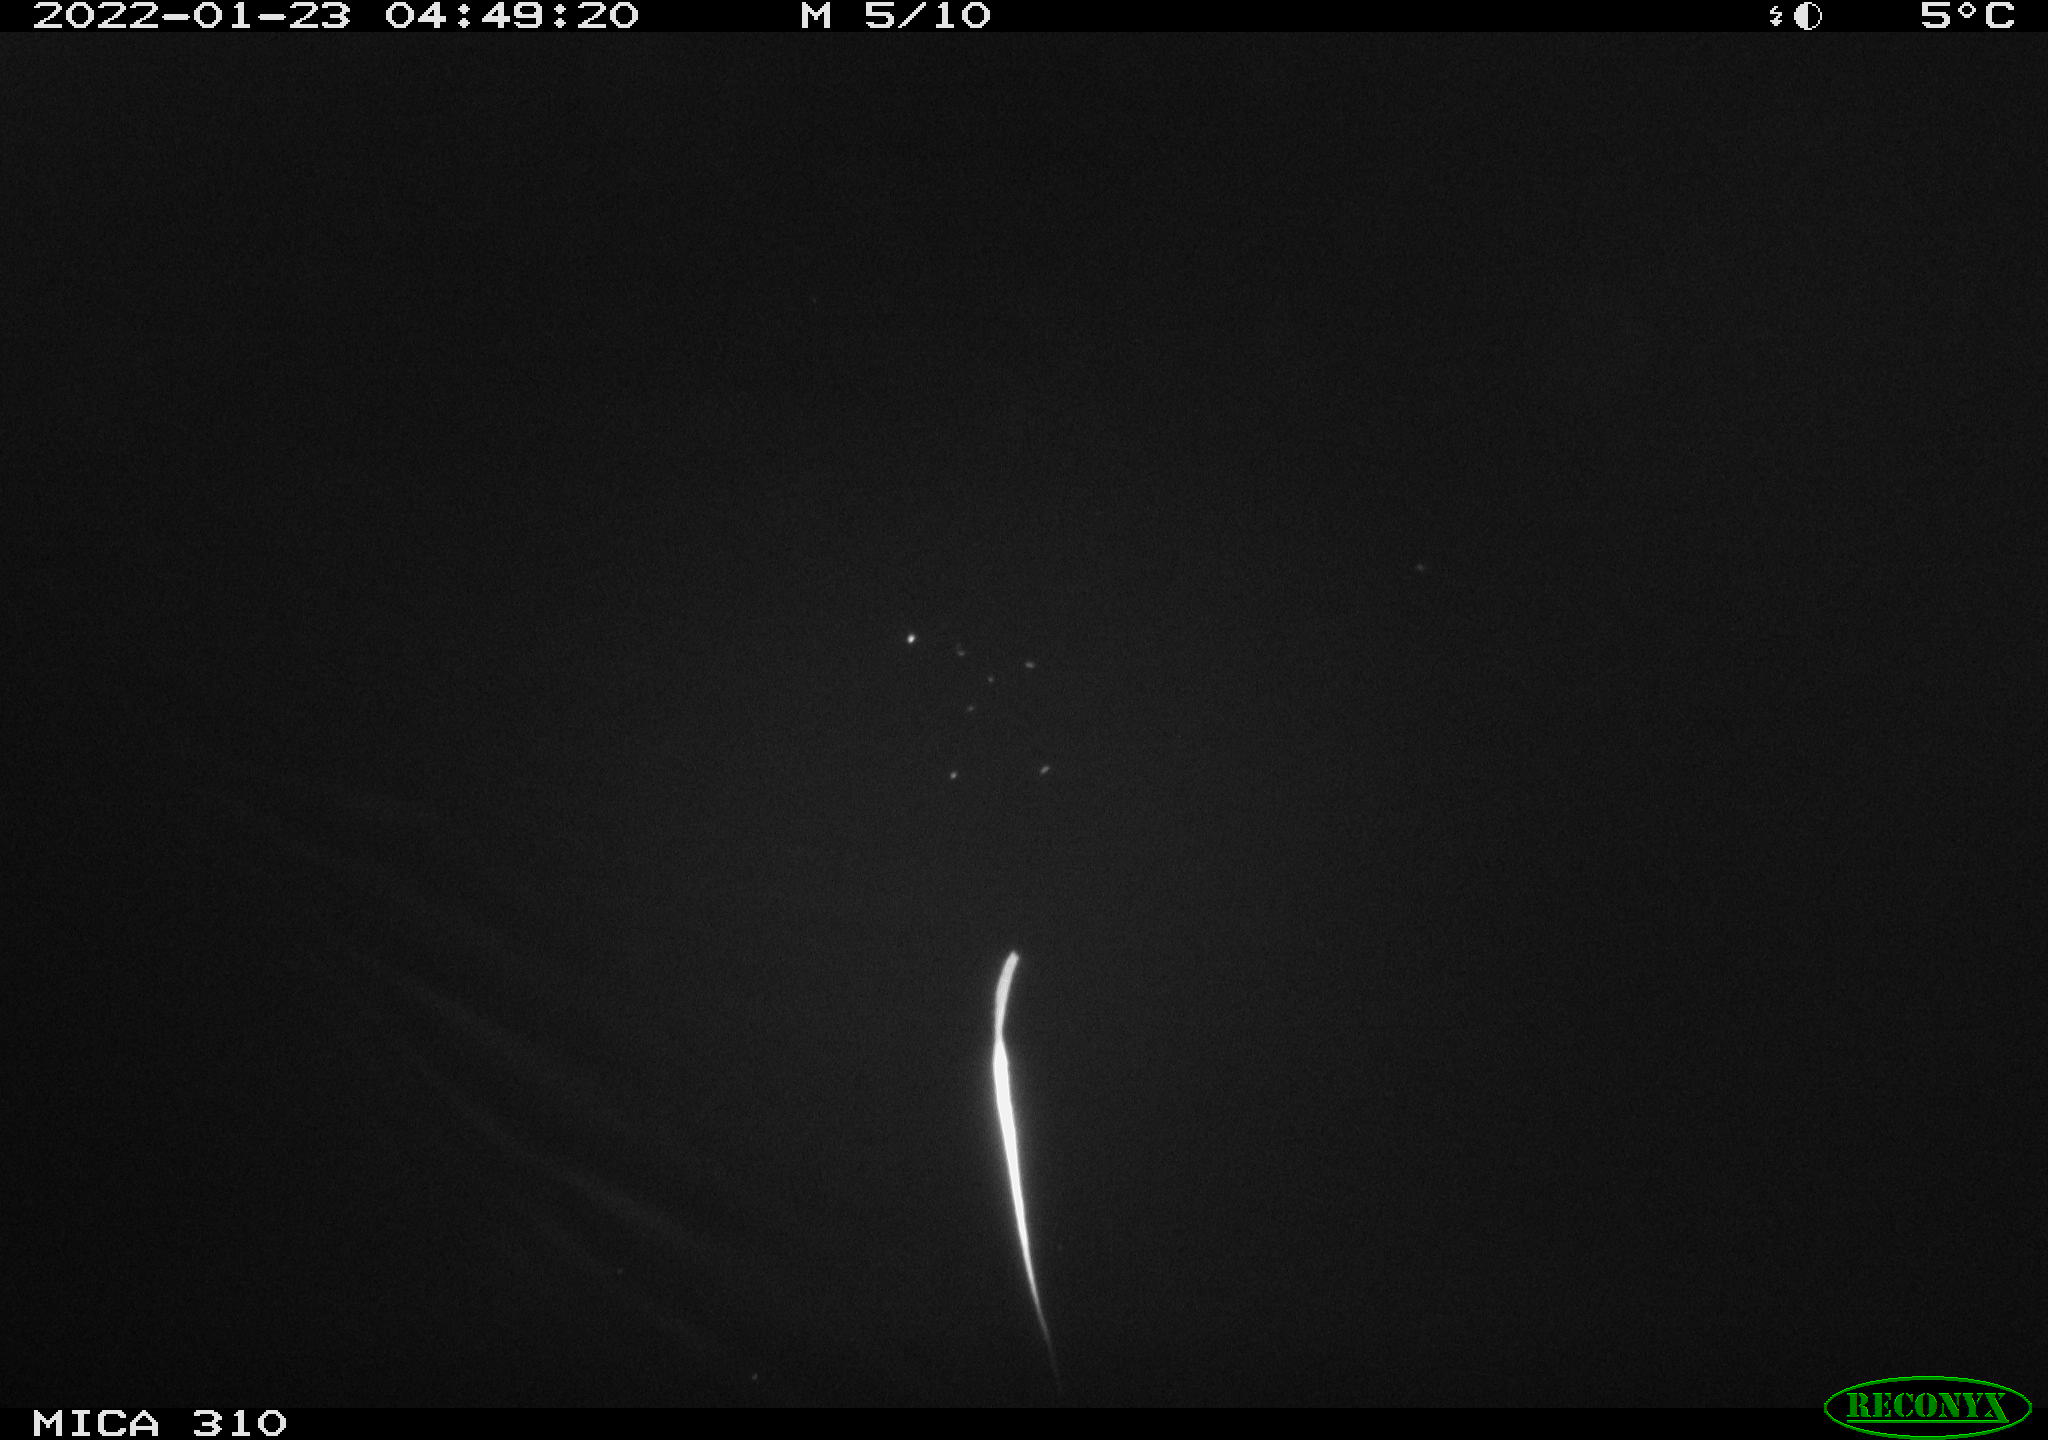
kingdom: Animalia
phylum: Chordata
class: Aves
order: Anseriformes
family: Anatidae
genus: Anas
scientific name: Anas
